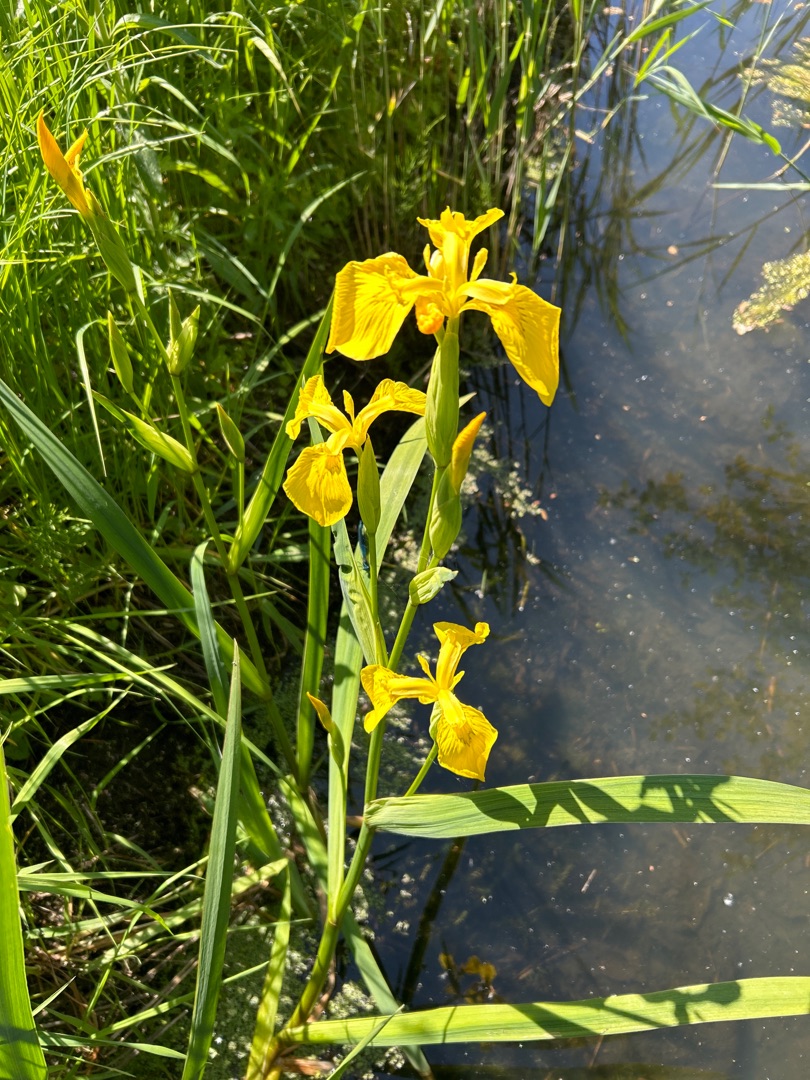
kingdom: Plantae
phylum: Tracheophyta
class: Liliopsida
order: Asparagales
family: Iridaceae
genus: Iris
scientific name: Iris pseudacorus
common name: Gul iris
